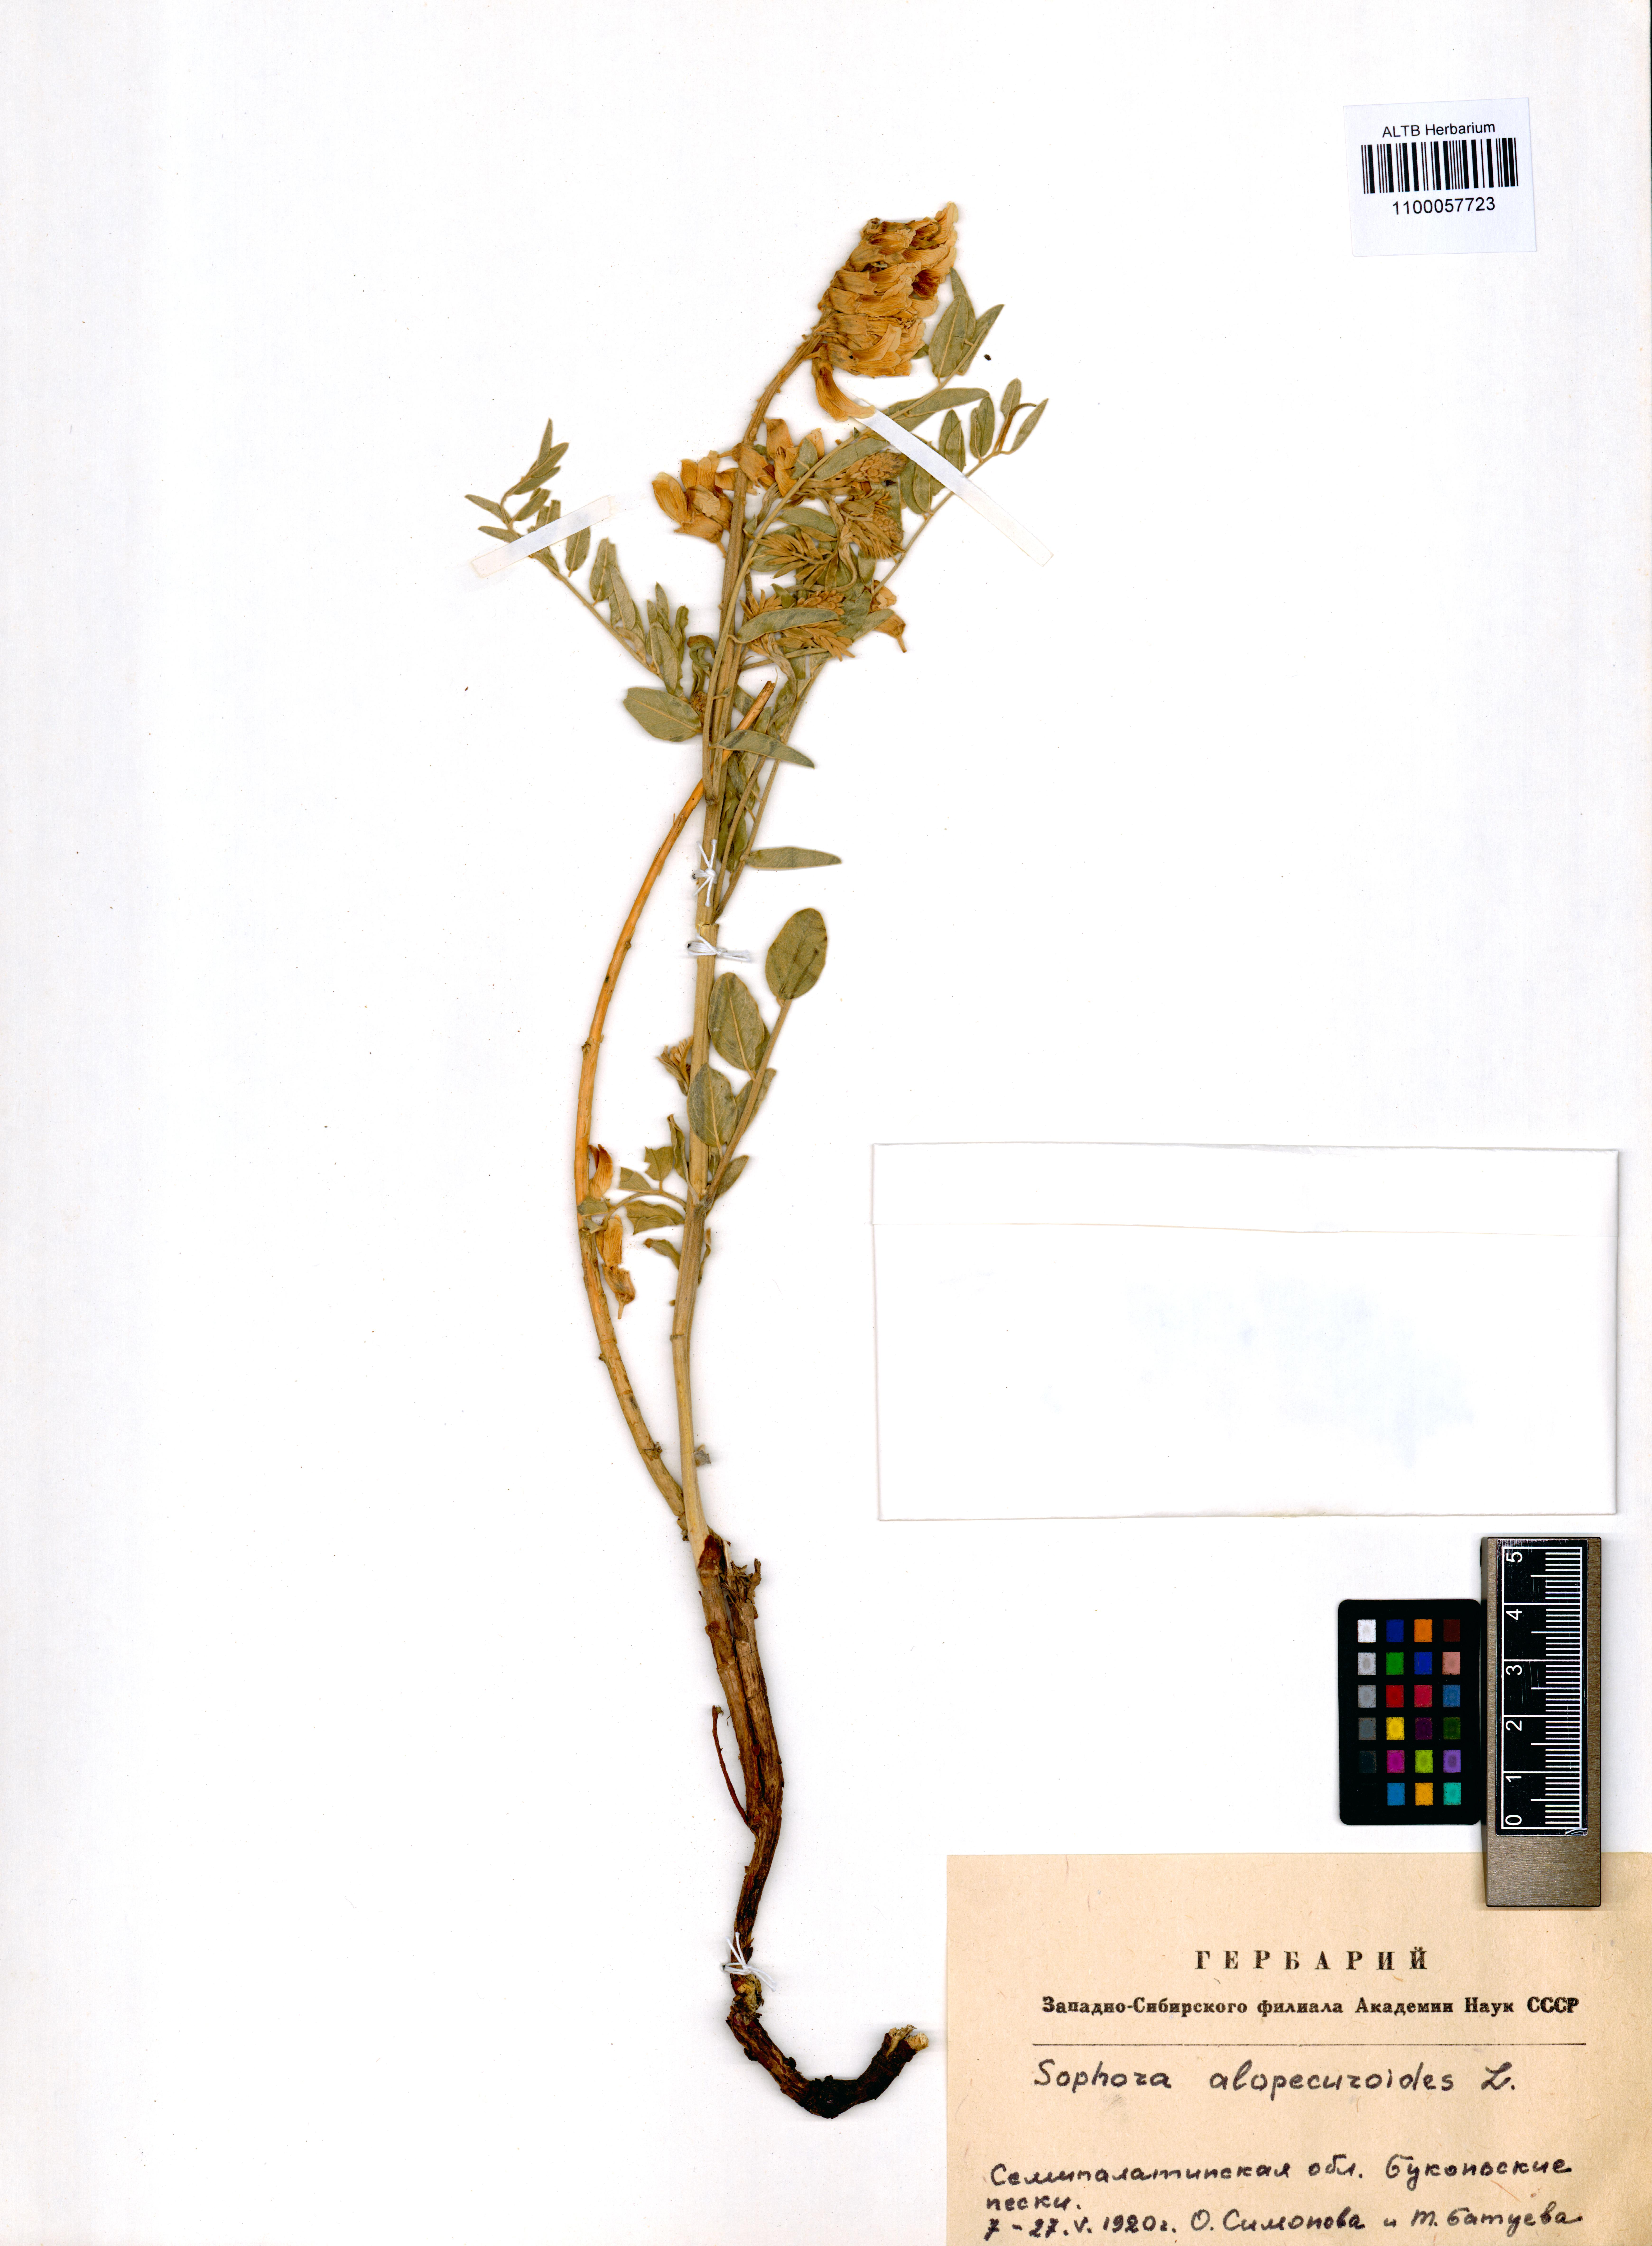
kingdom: Plantae
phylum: Tracheophyta
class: Magnoliopsida
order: Fabales
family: Fabaceae
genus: Sophora
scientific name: Sophora alopecuroides
